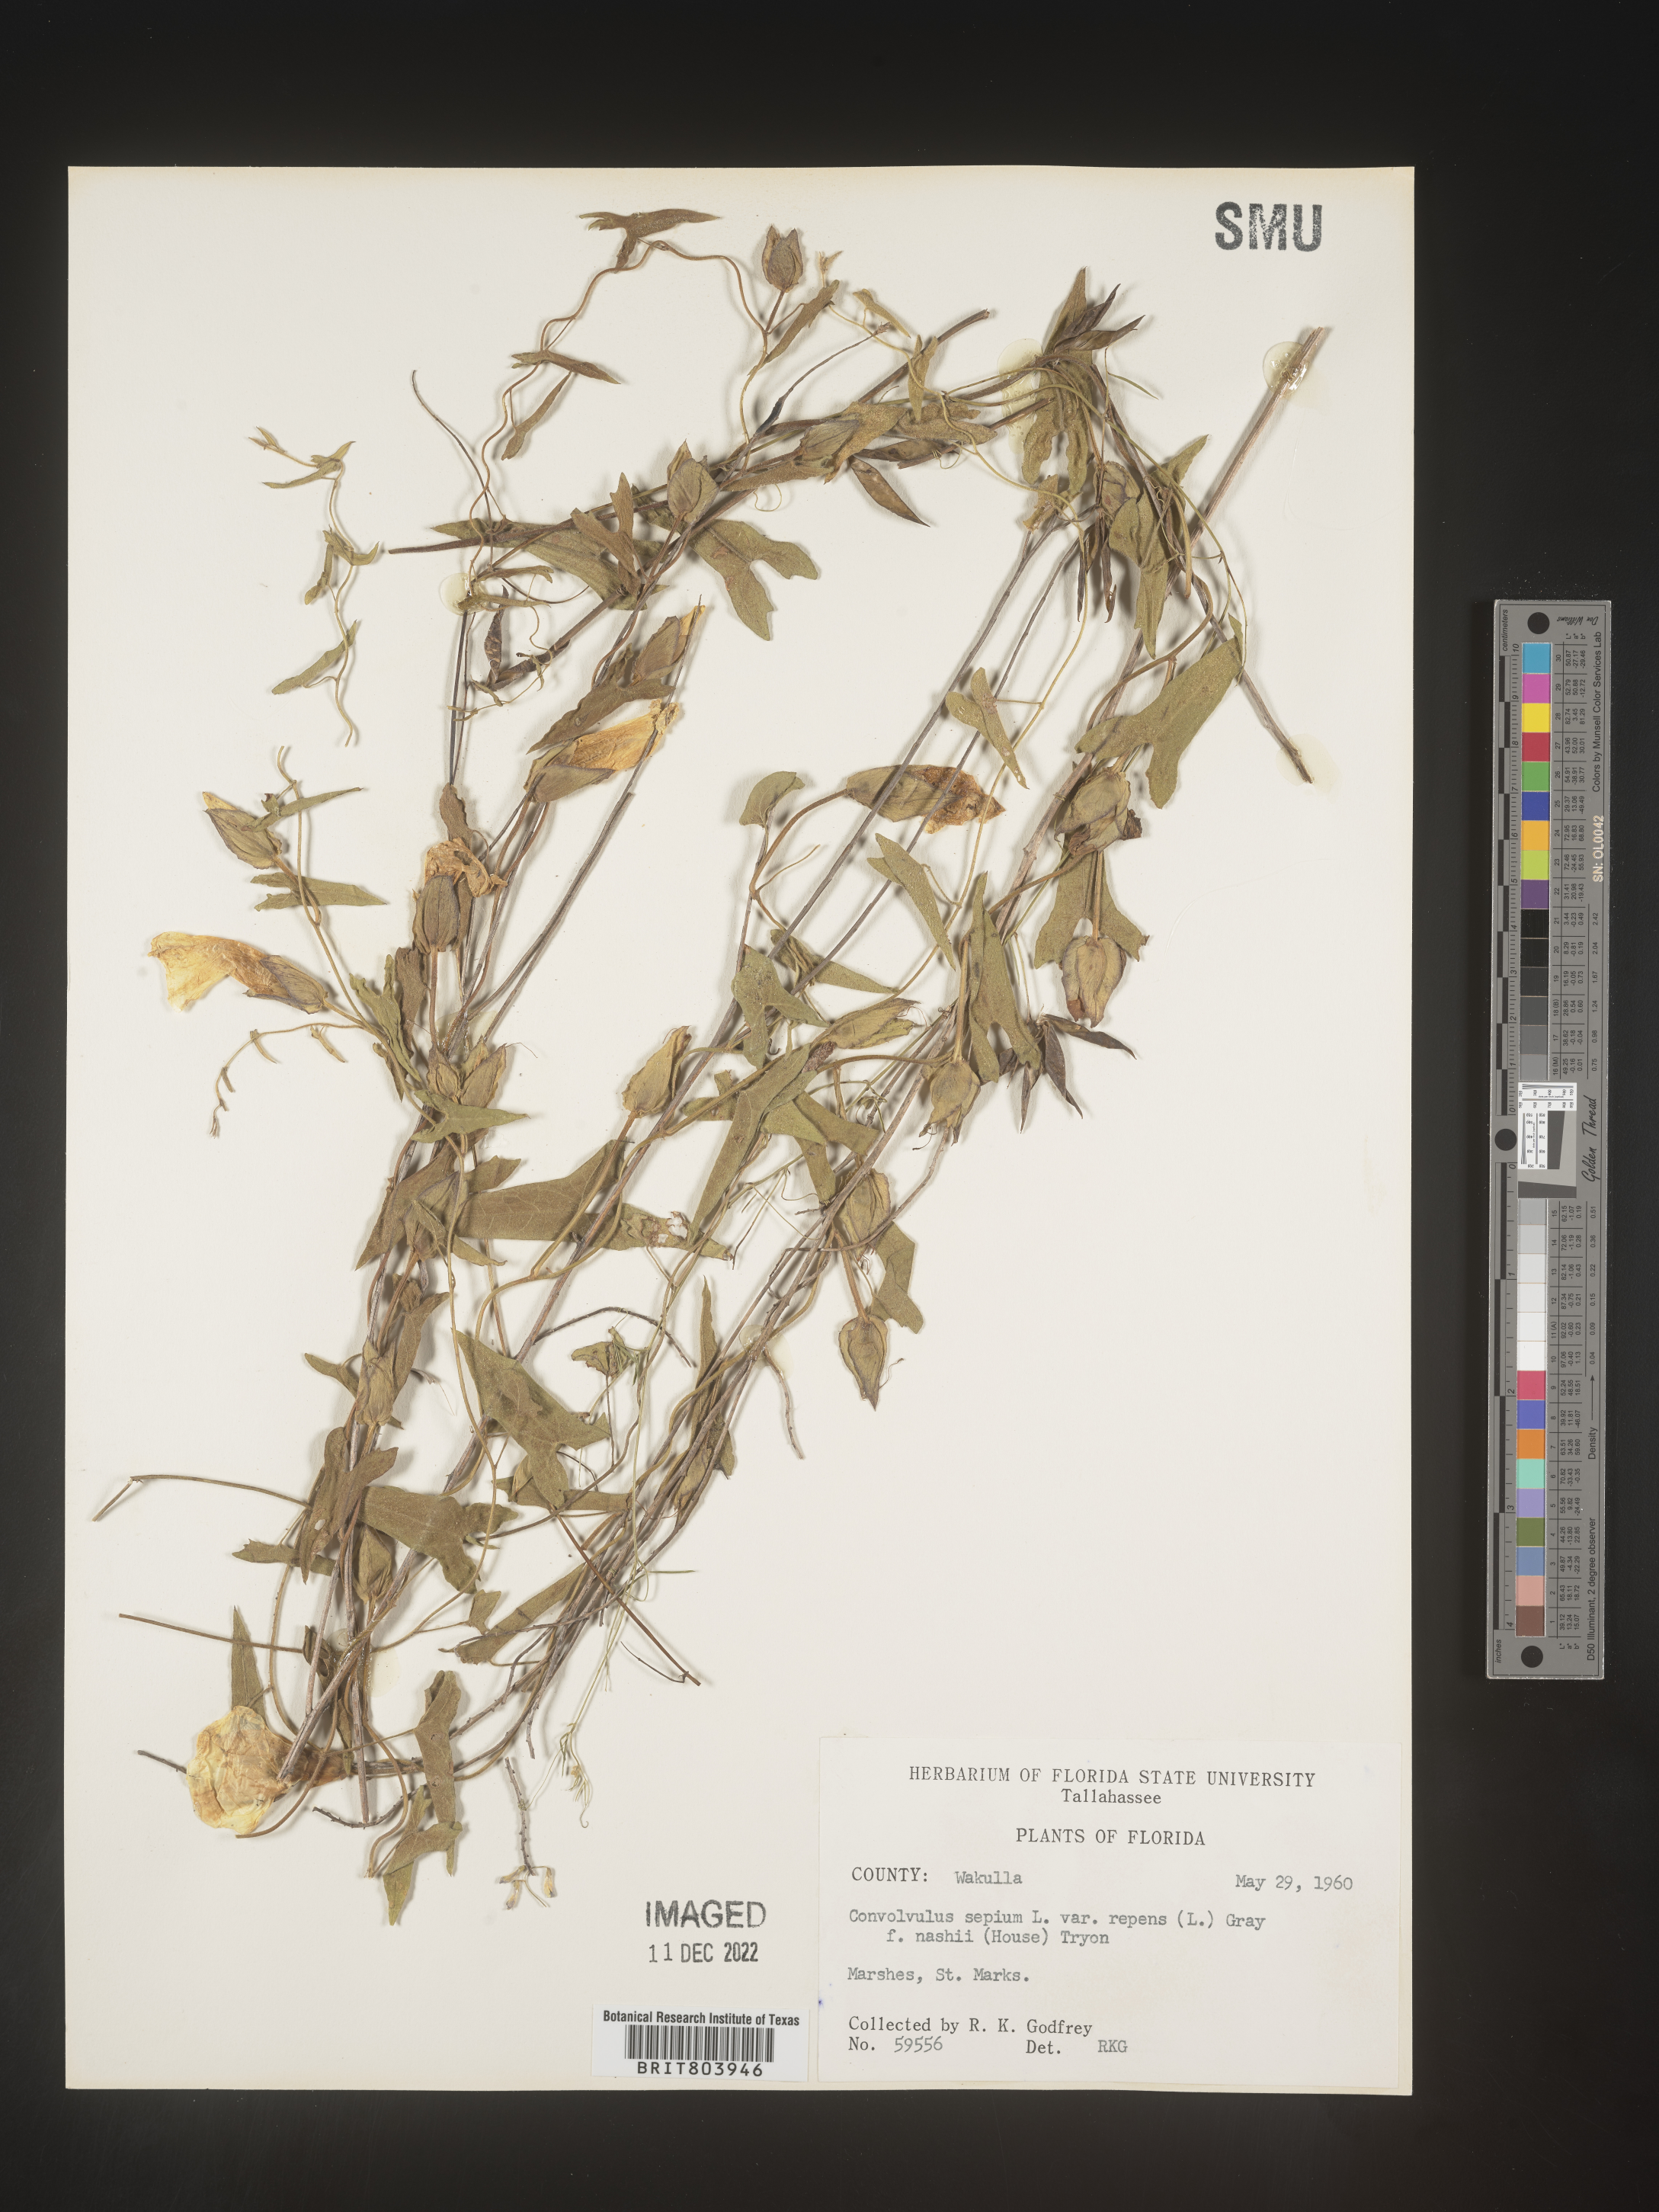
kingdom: Plantae
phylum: Tracheophyta
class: Magnoliopsida
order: Solanales
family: Convolvulaceae
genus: Calystegia
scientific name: Calystegia sepium
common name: Hedge bindweed
